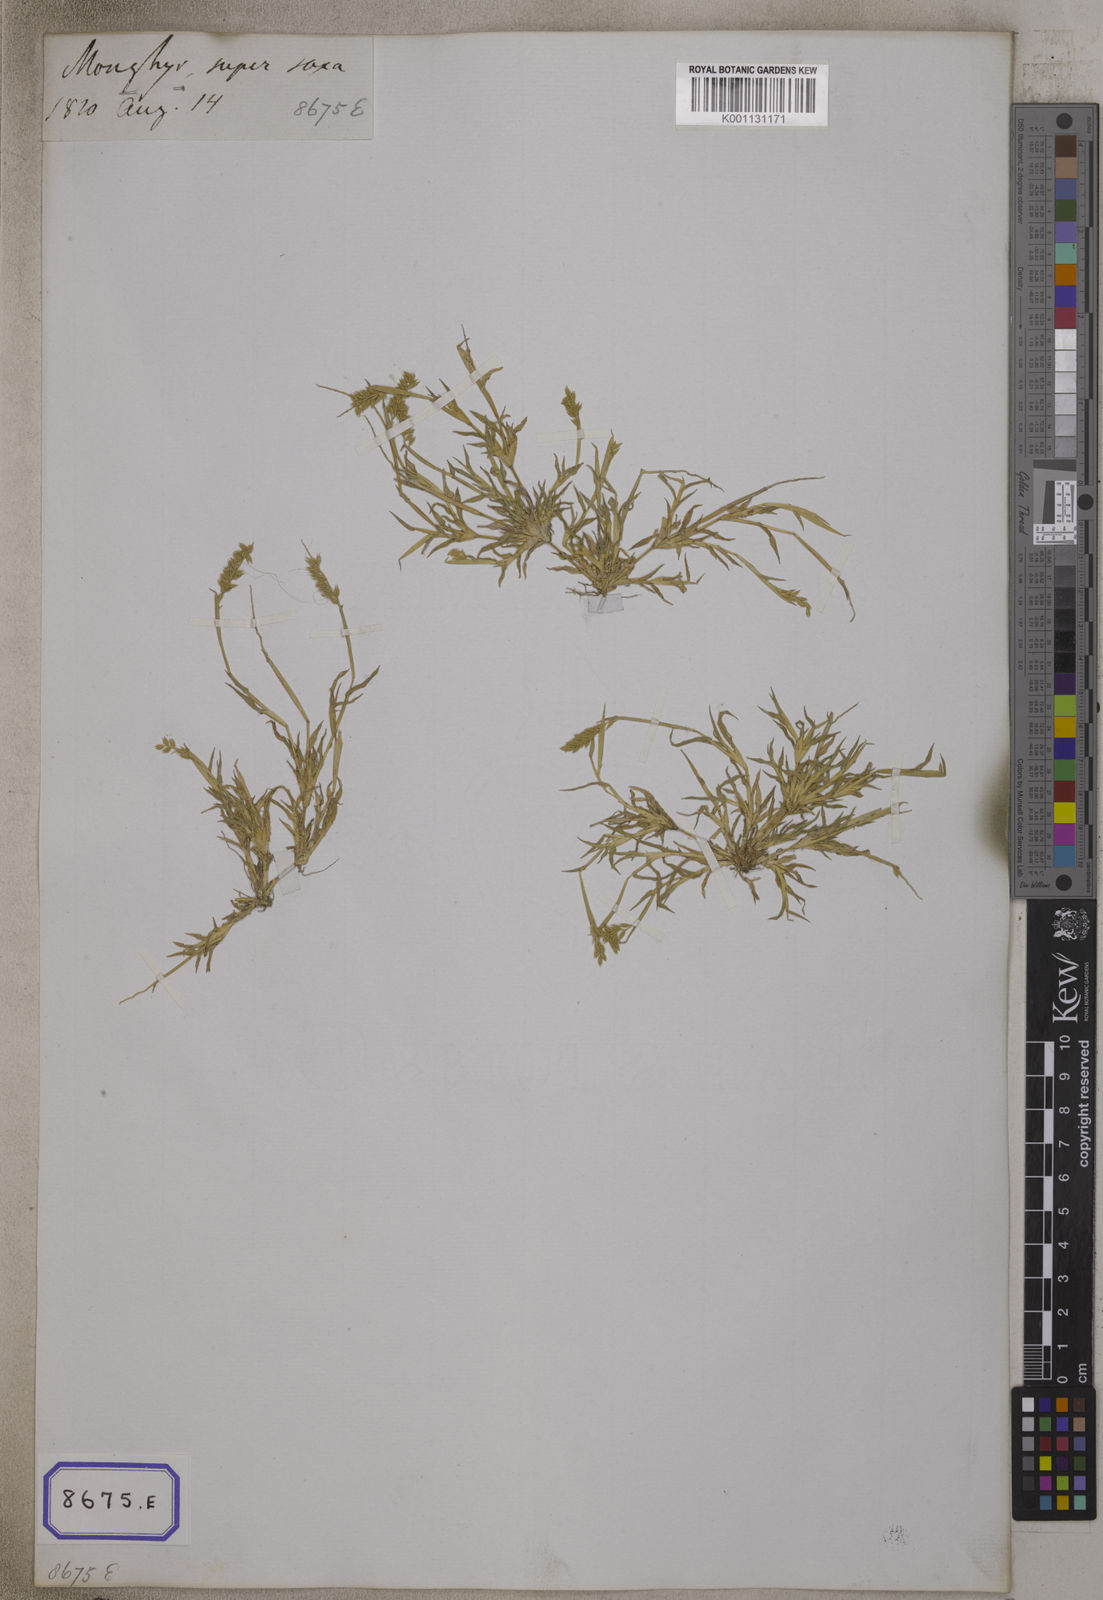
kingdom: Plantae
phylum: Tracheophyta
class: Liliopsida
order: Poales
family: Poaceae
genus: Tragus
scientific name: Tragus racemosus
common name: European bur-grass
